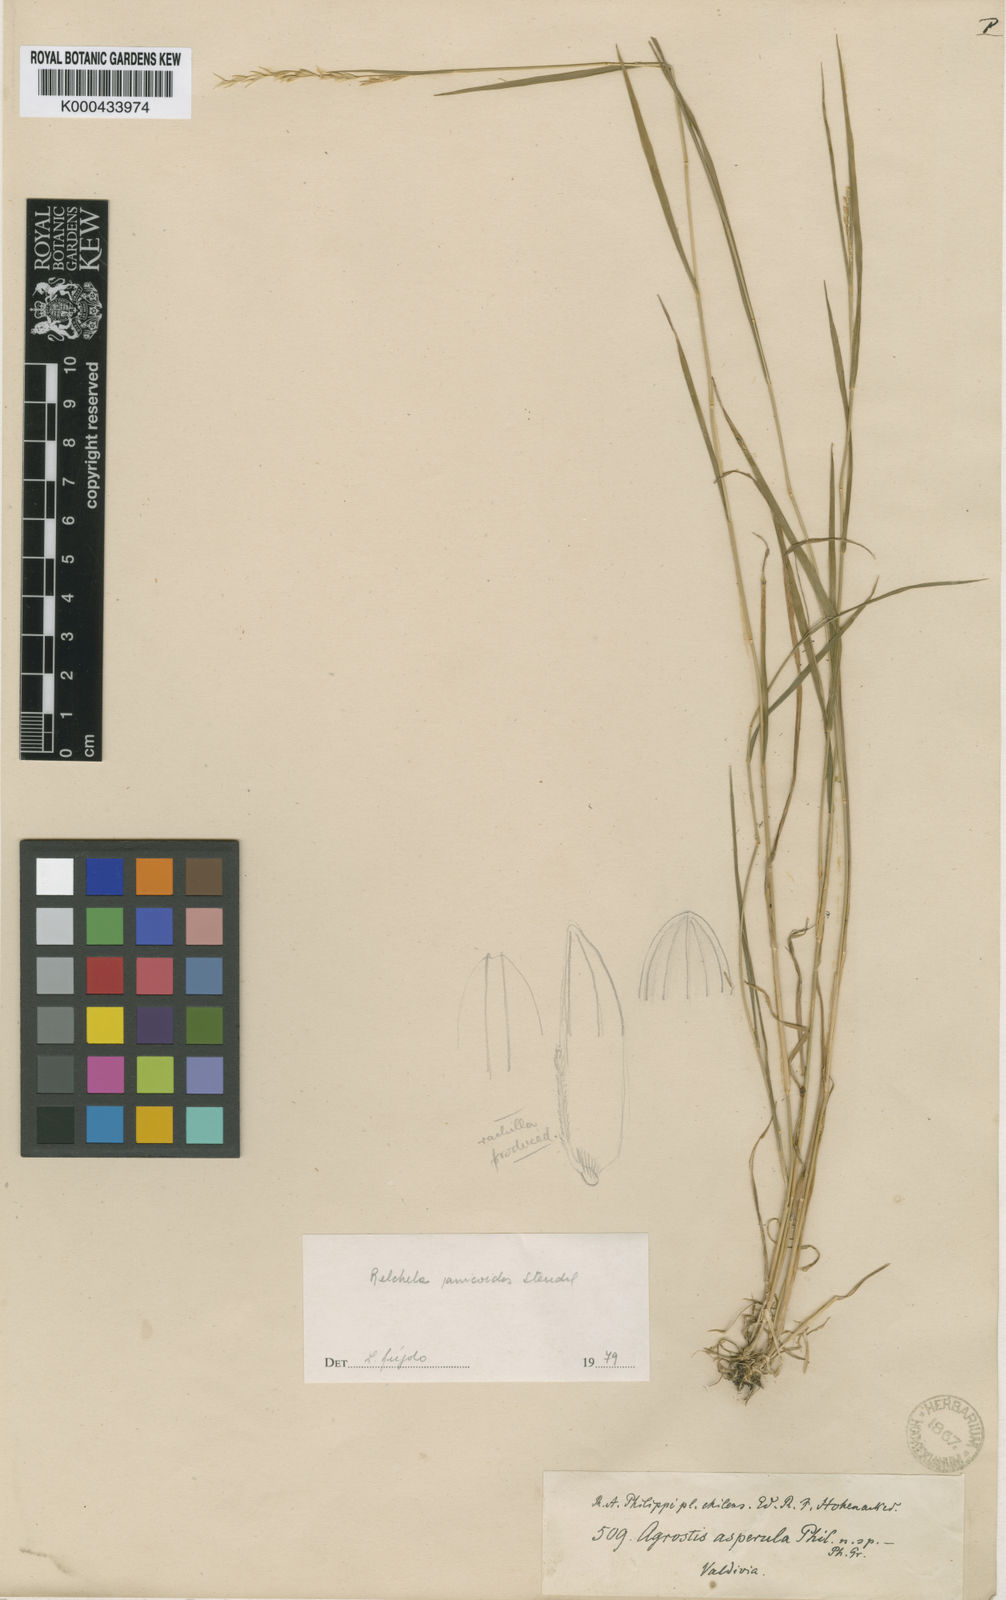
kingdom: Plantae
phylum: Tracheophyta
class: Liliopsida
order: Poales
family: Poaceae
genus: Relchela
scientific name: Relchela panicoides
